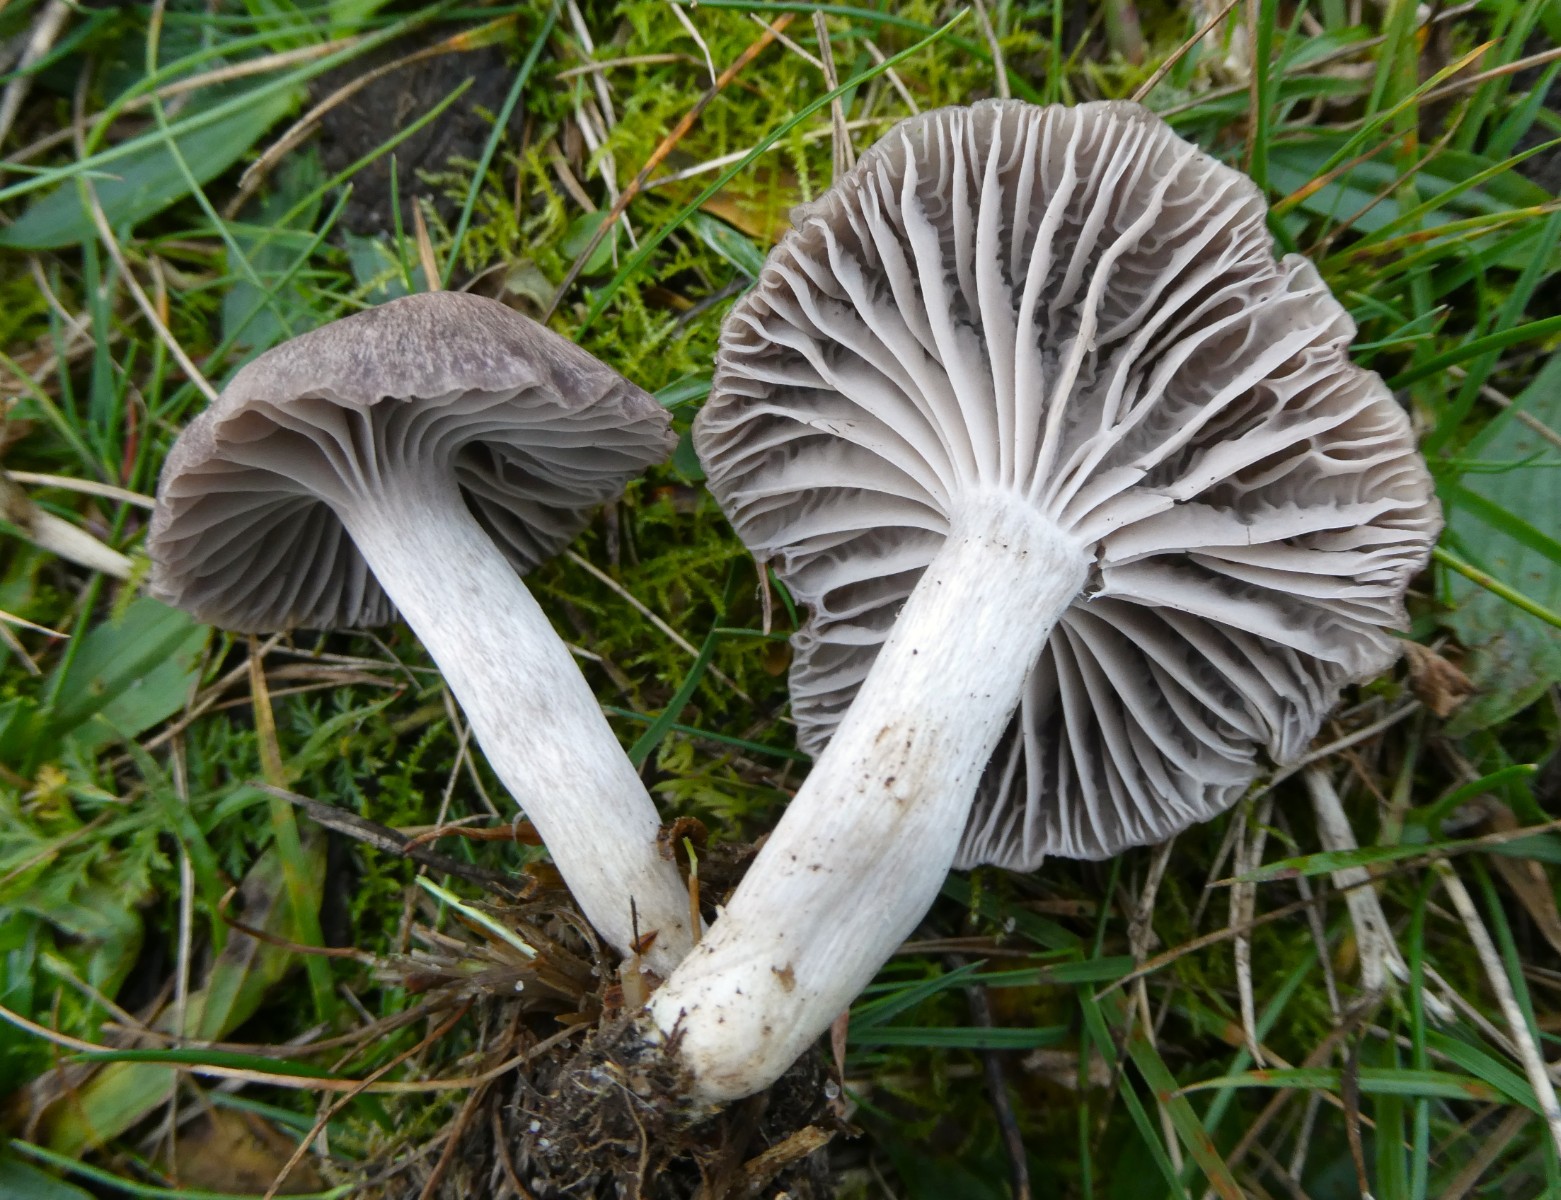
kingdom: Fungi
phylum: Basidiomycota
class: Agaricomycetes
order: Agaricales
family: Hygrophoraceae
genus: Cuphophyllus
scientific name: Cuphophyllus
